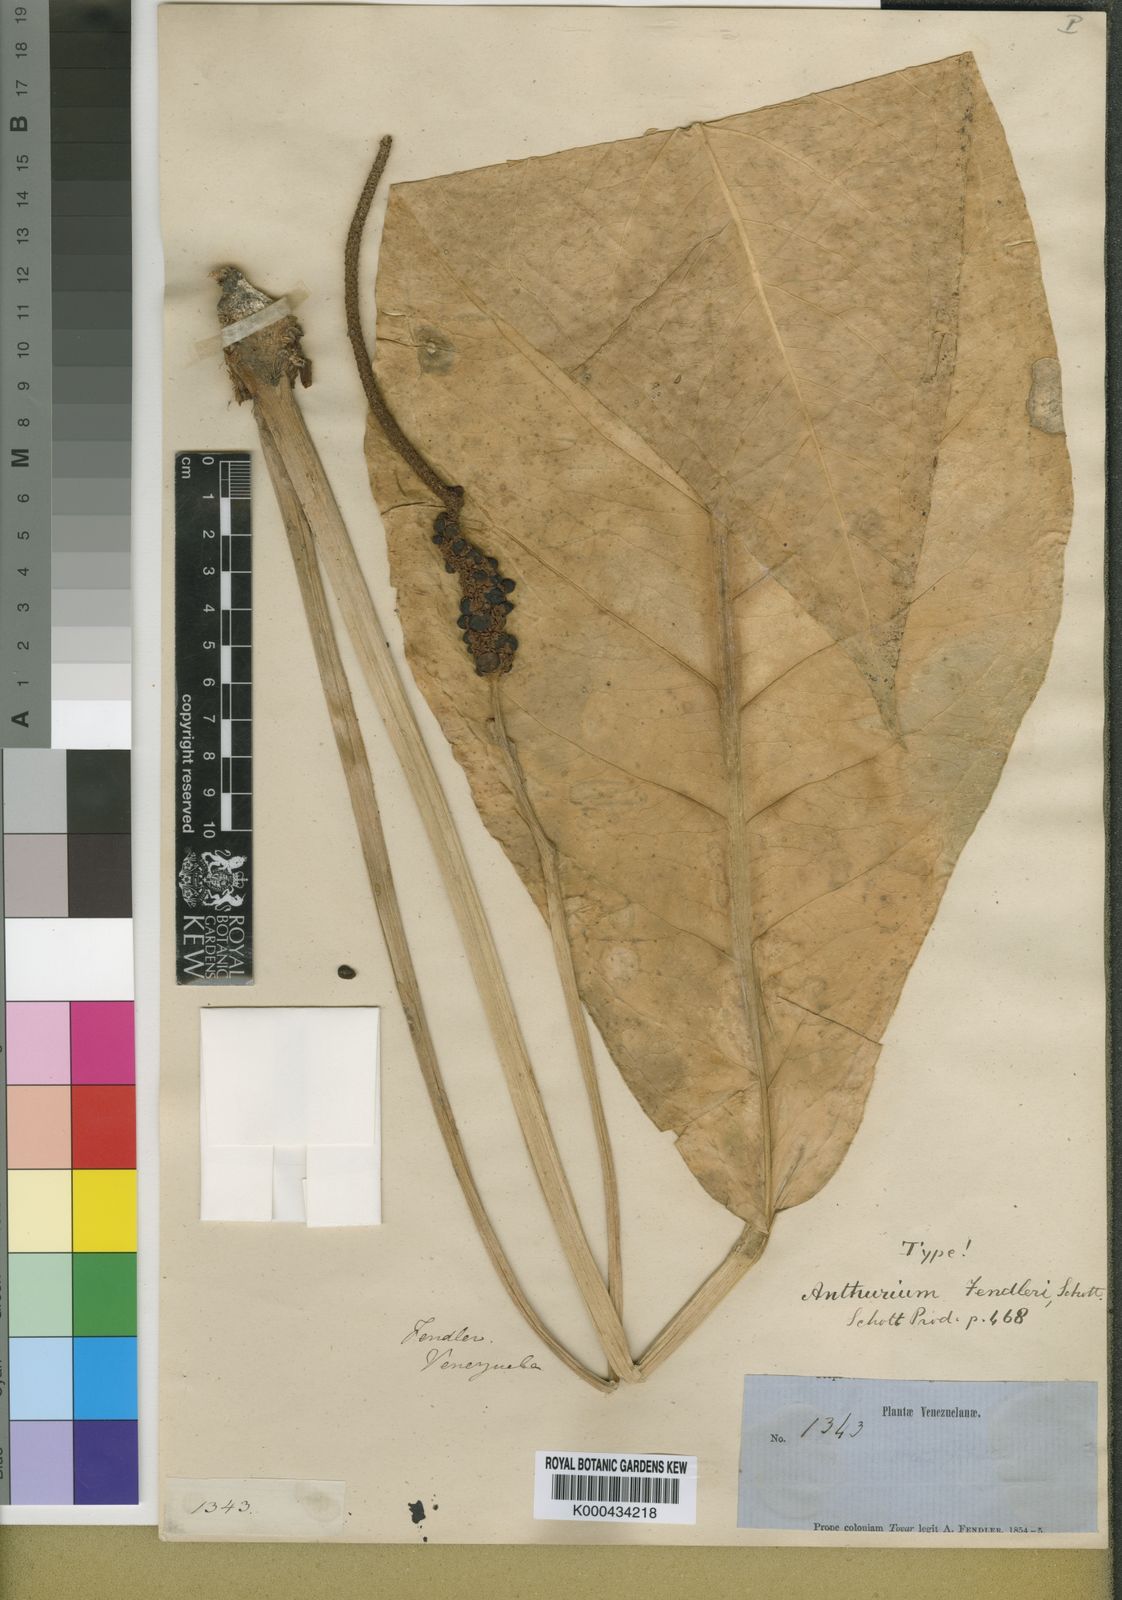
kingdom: Plantae
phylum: Tracheophyta
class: Liliopsida
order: Alismatales
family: Araceae
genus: Anthurium
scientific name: Anthurium fendleri
